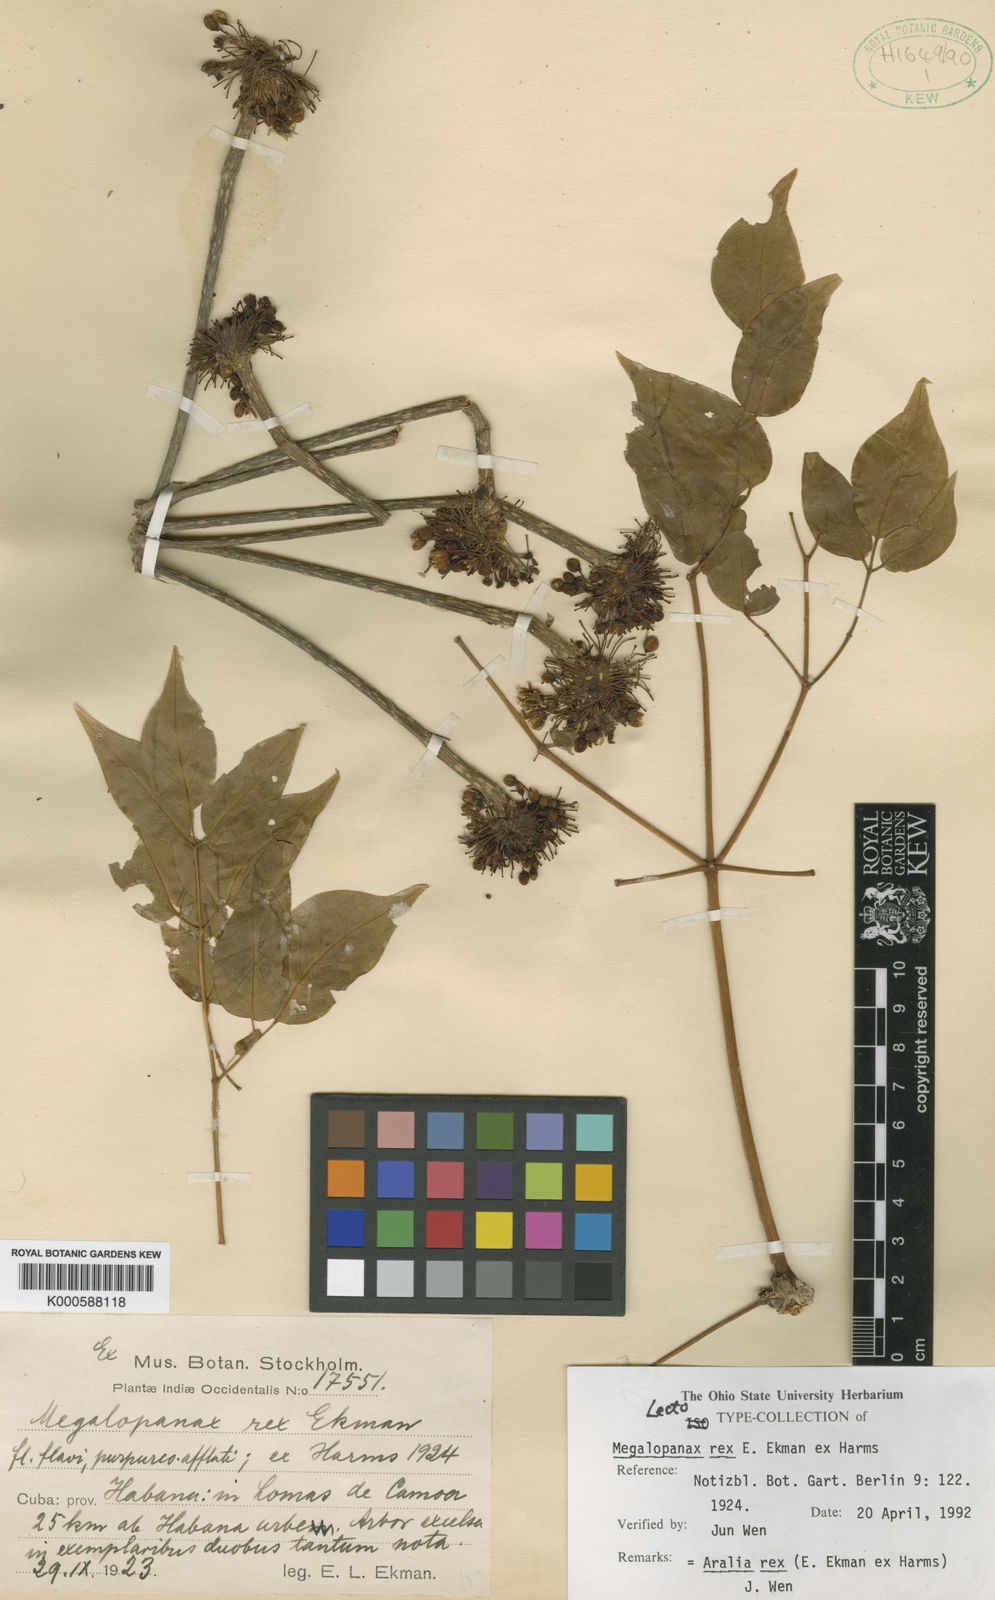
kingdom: Plantae
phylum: Tracheophyta
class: Magnoliopsida
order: Apiales
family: Araliaceae
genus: Aralia
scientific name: Aralia rex
